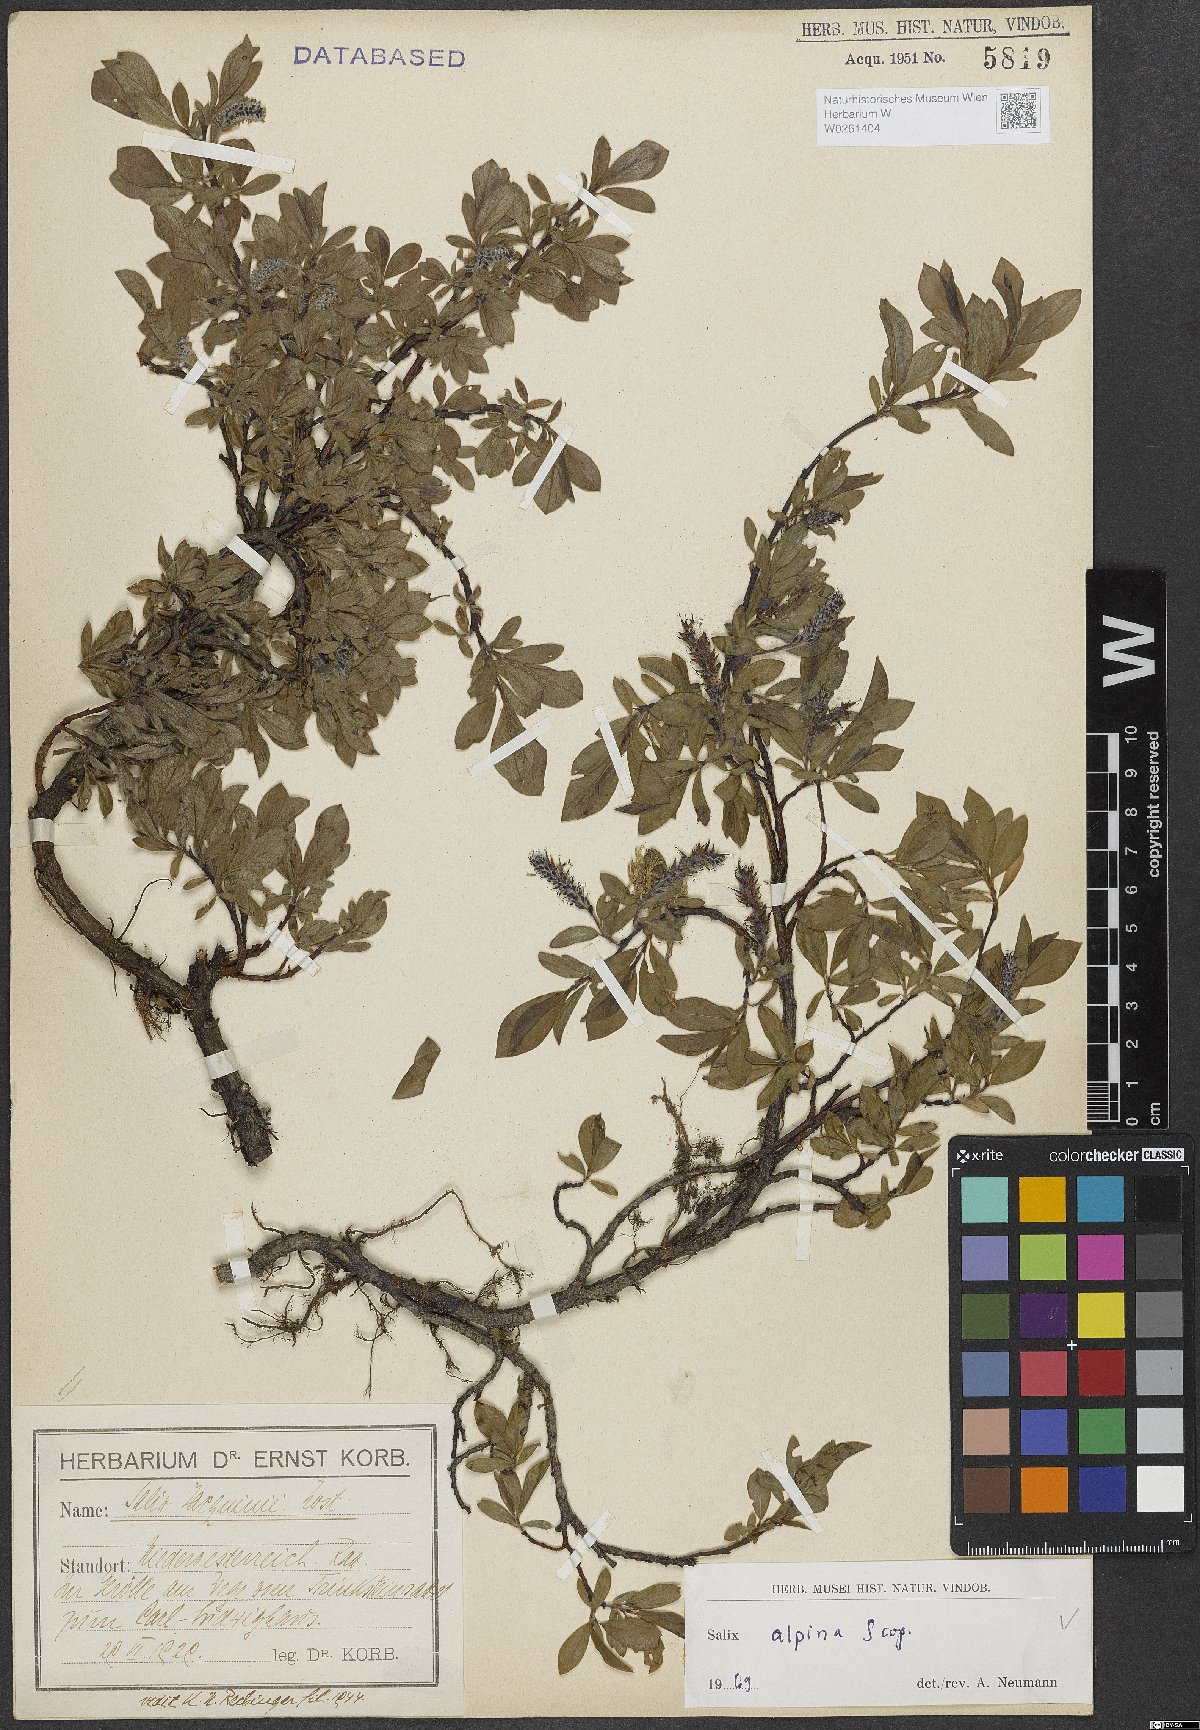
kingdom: Plantae
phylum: Tracheophyta
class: Magnoliopsida
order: Malpighiales
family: Salicaceae
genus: Salix
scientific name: Salix alpina
